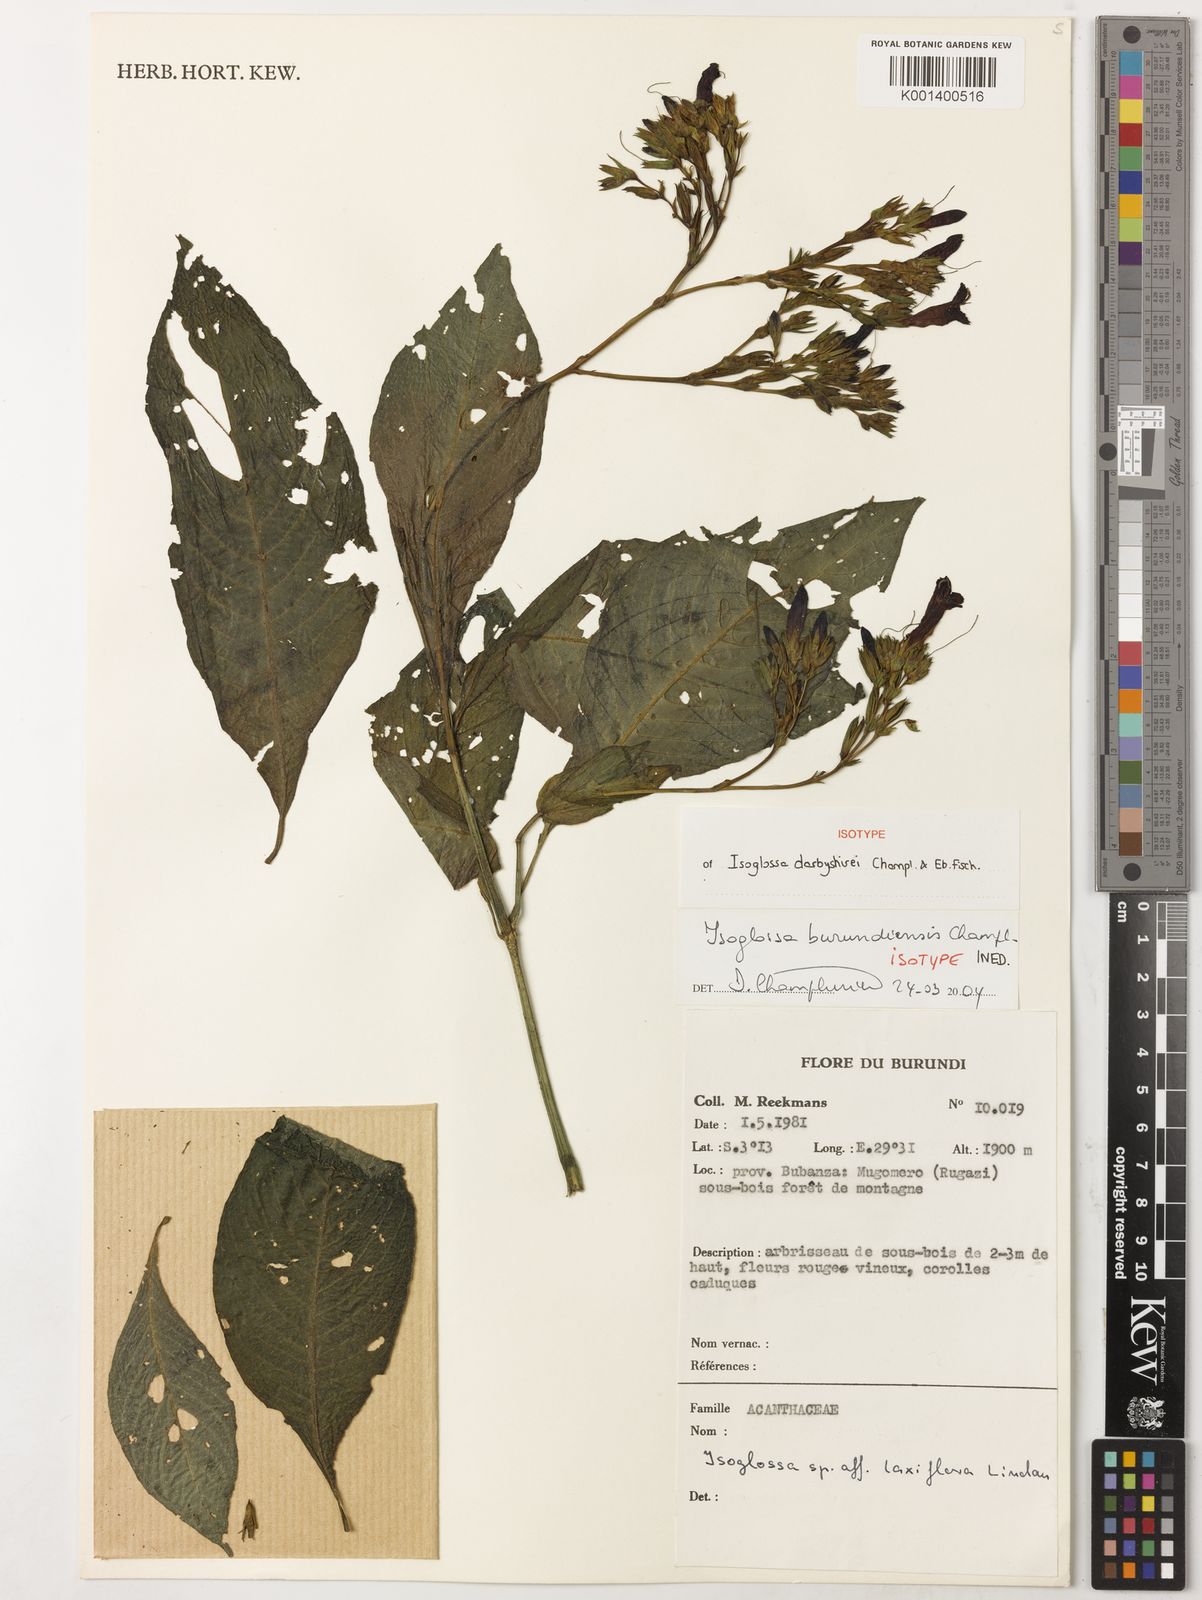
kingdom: Plantae
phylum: Tracheophyta
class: Magnoliopsida
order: Lamiales
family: Acanthaceae
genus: Isoglossa
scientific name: Isoglossa
